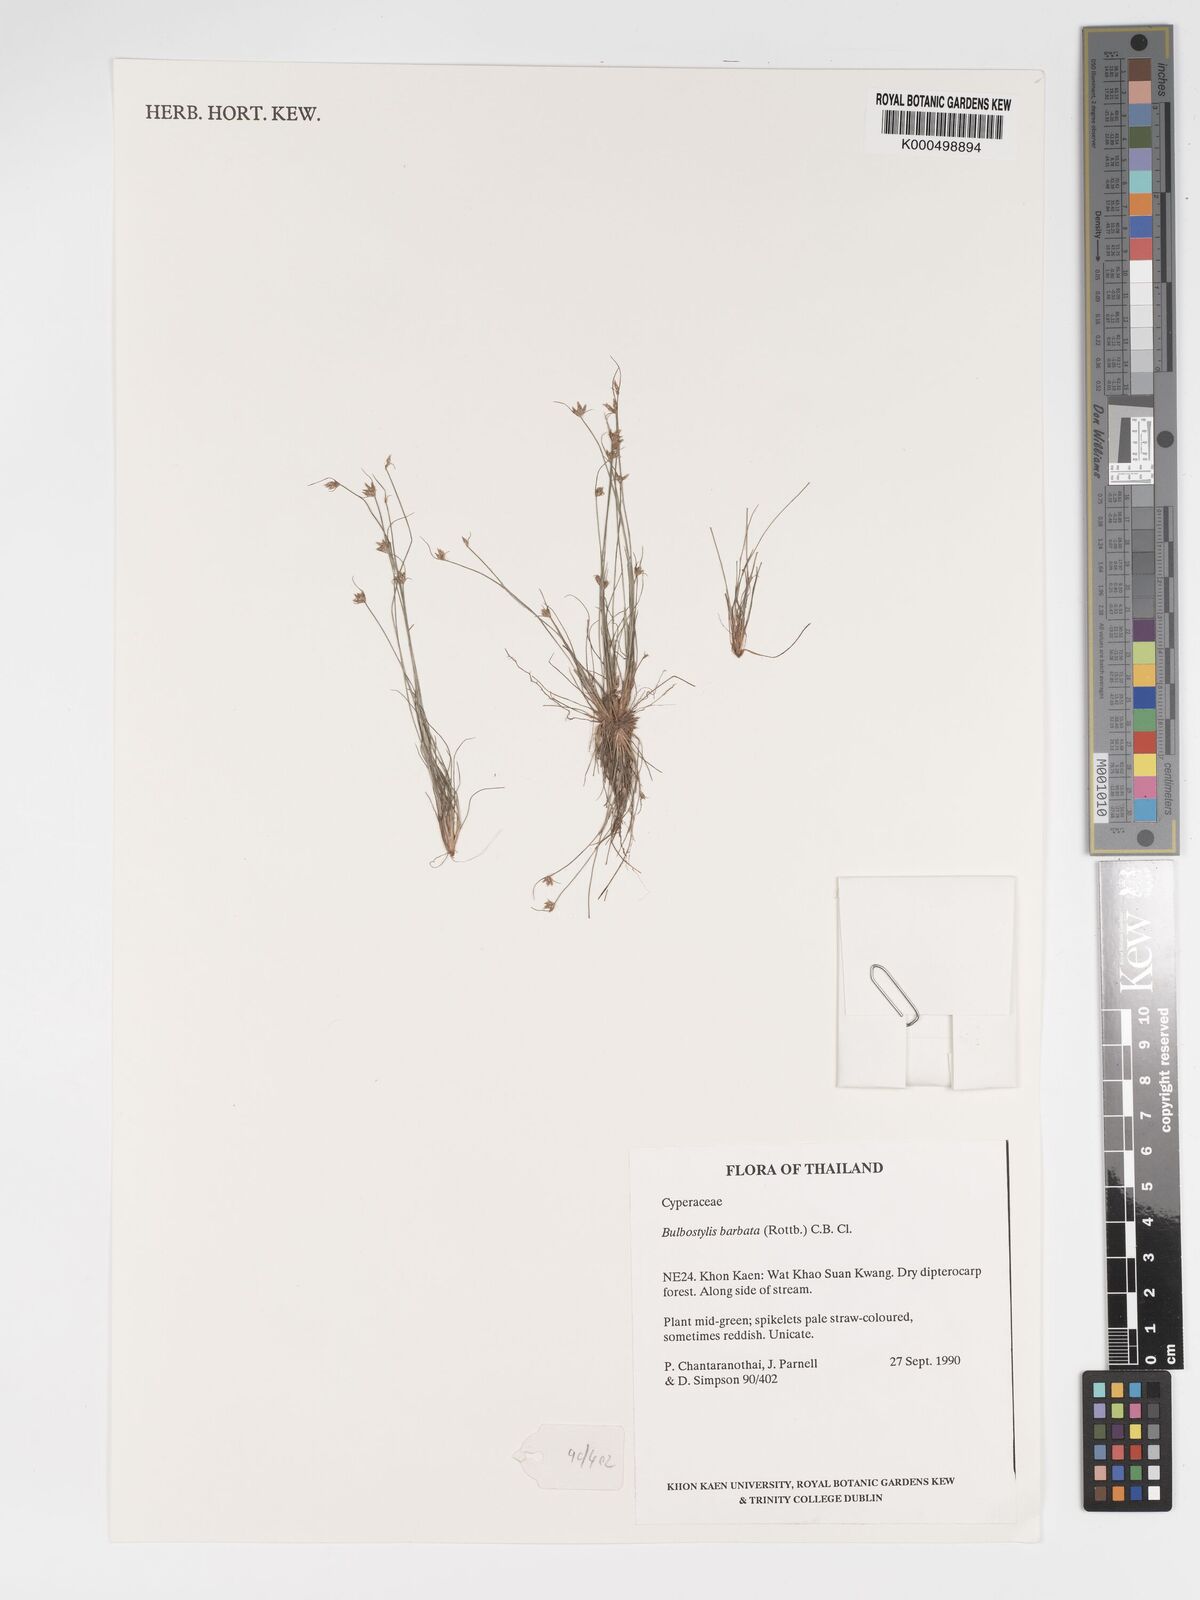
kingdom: Plantae
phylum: Tracheophyta
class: Liliopsida
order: Poales
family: Cyperaceae
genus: Bulbostylis
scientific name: Bulbostylis barbata
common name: Watergrass
